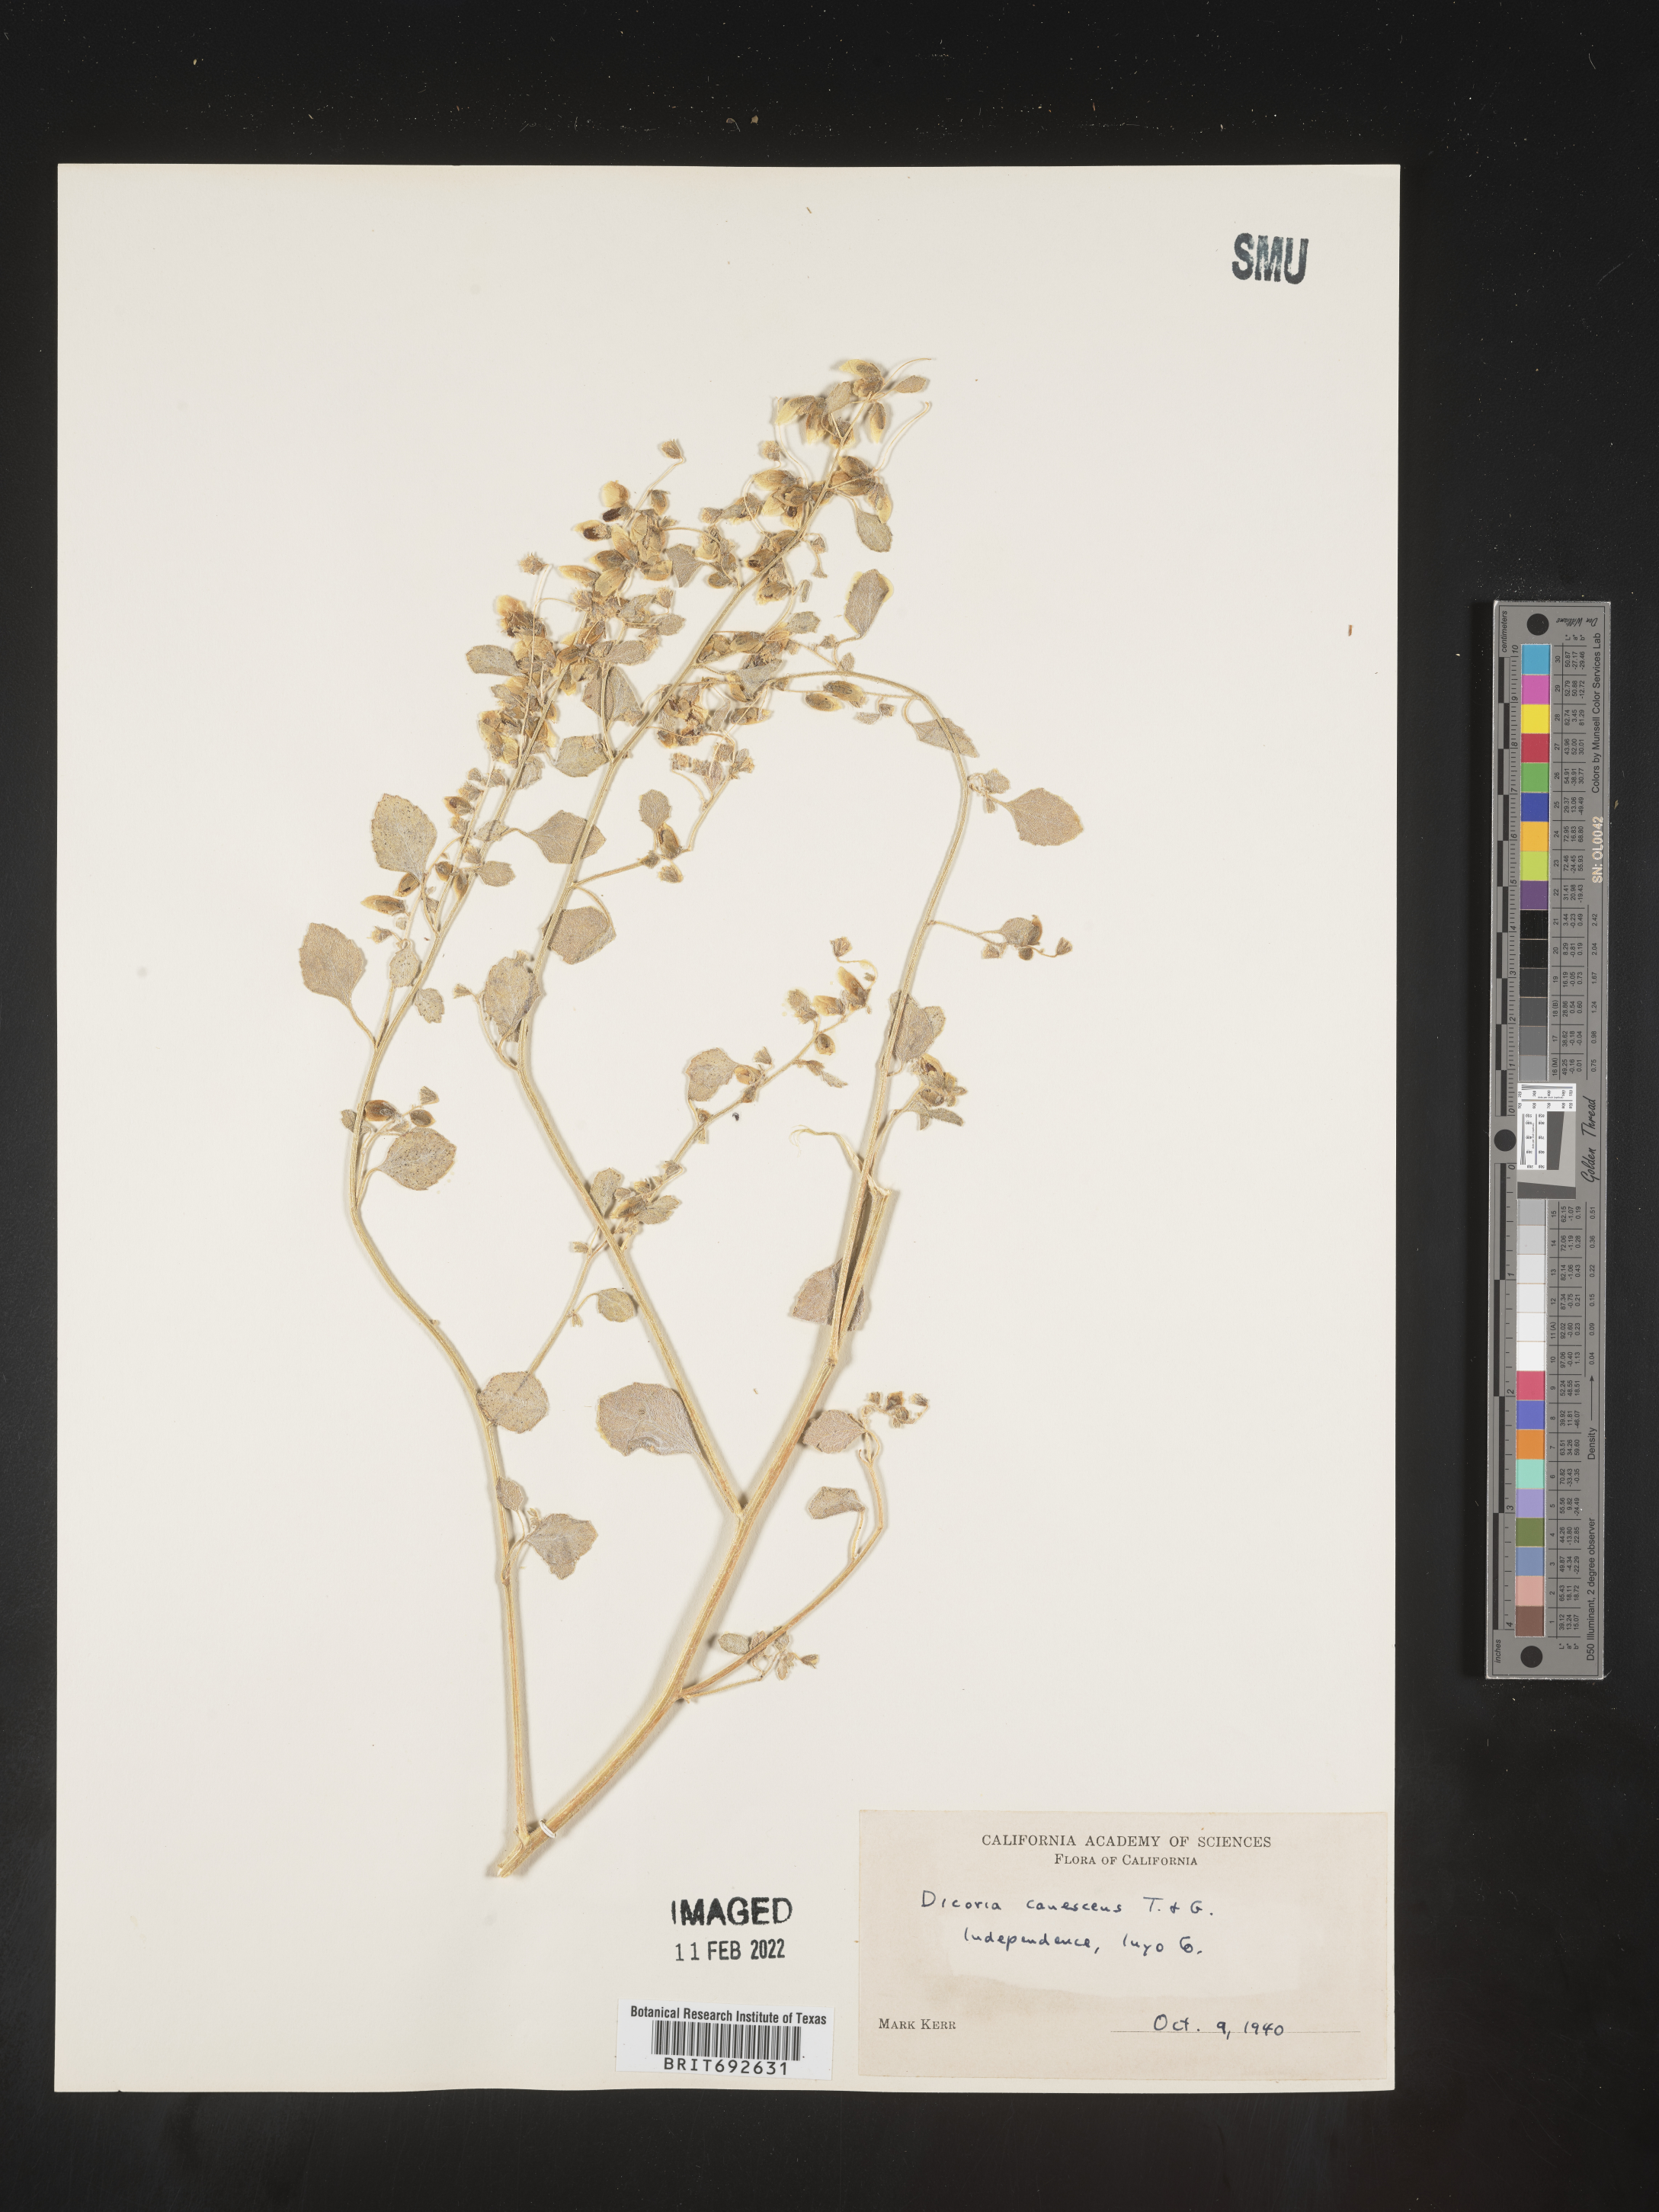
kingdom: Plantae
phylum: Tracheophyta
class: Magnoliopsida
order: Asterales
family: Asteraceae
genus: Dicoria
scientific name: Dicoria
